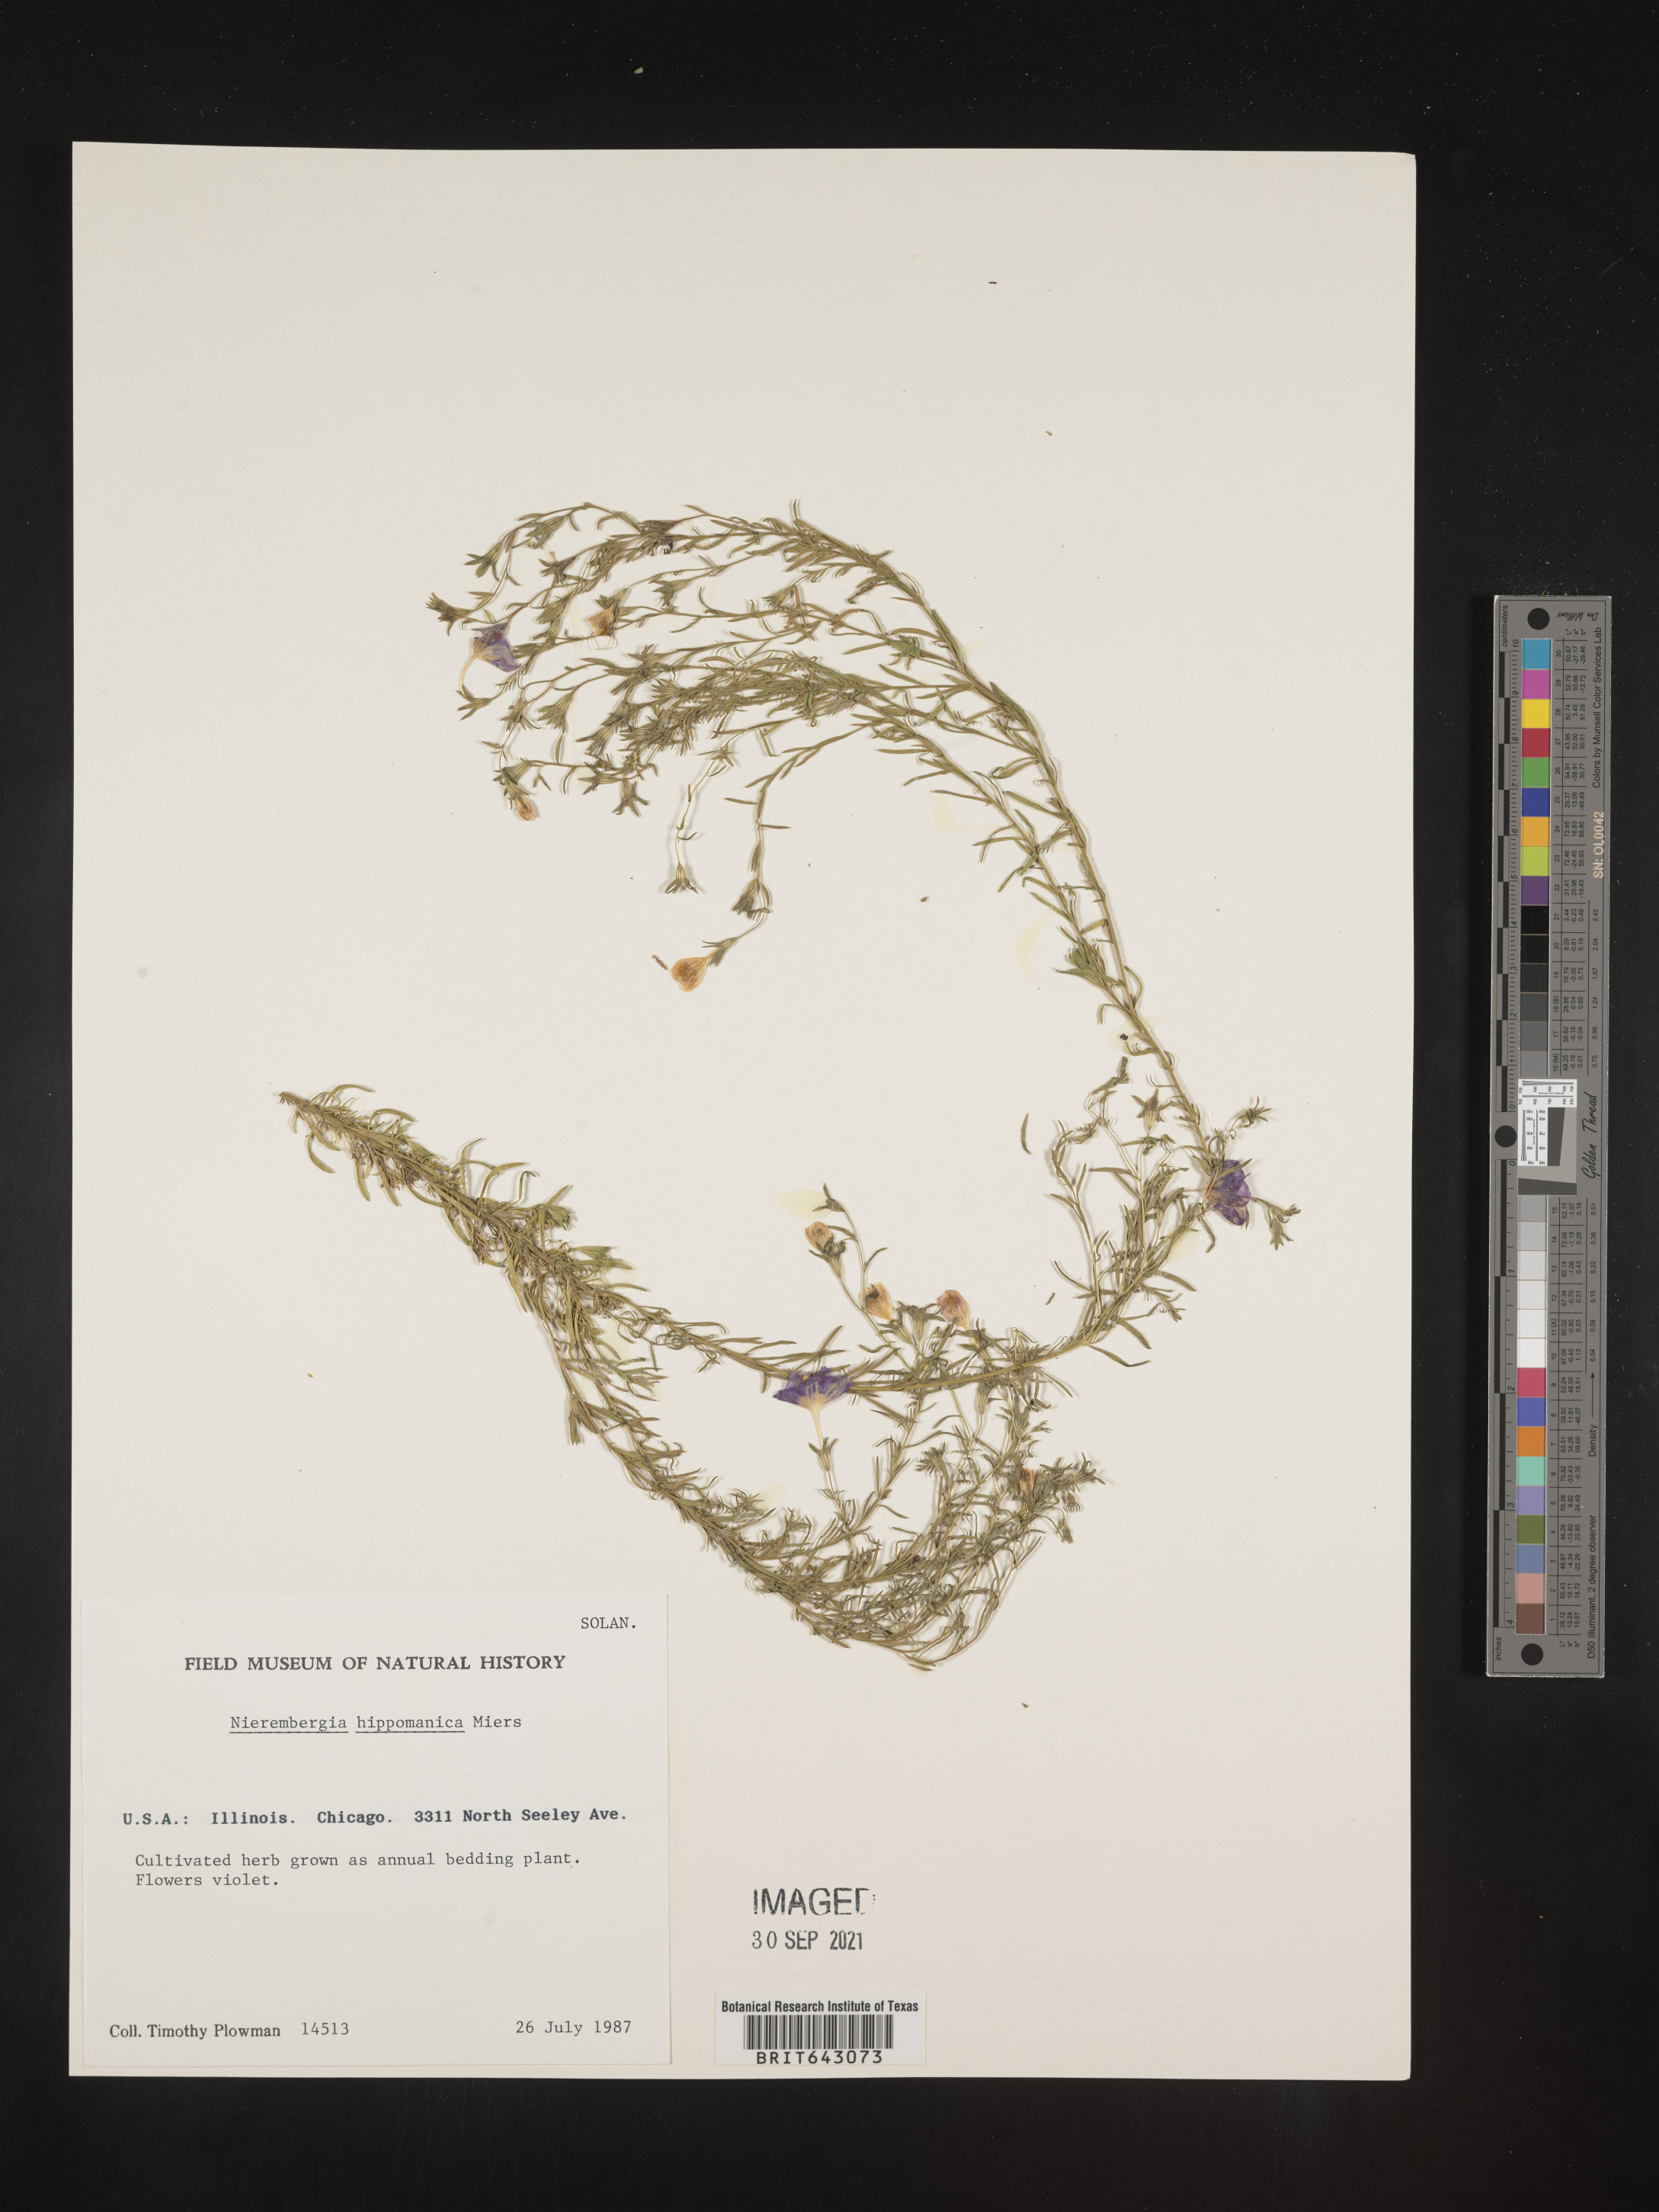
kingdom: Plantae
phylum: Tracheophyta
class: Magnoliopsida
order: Solanales
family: Solanaceae
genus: Nierembergia
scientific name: Nierembergia
